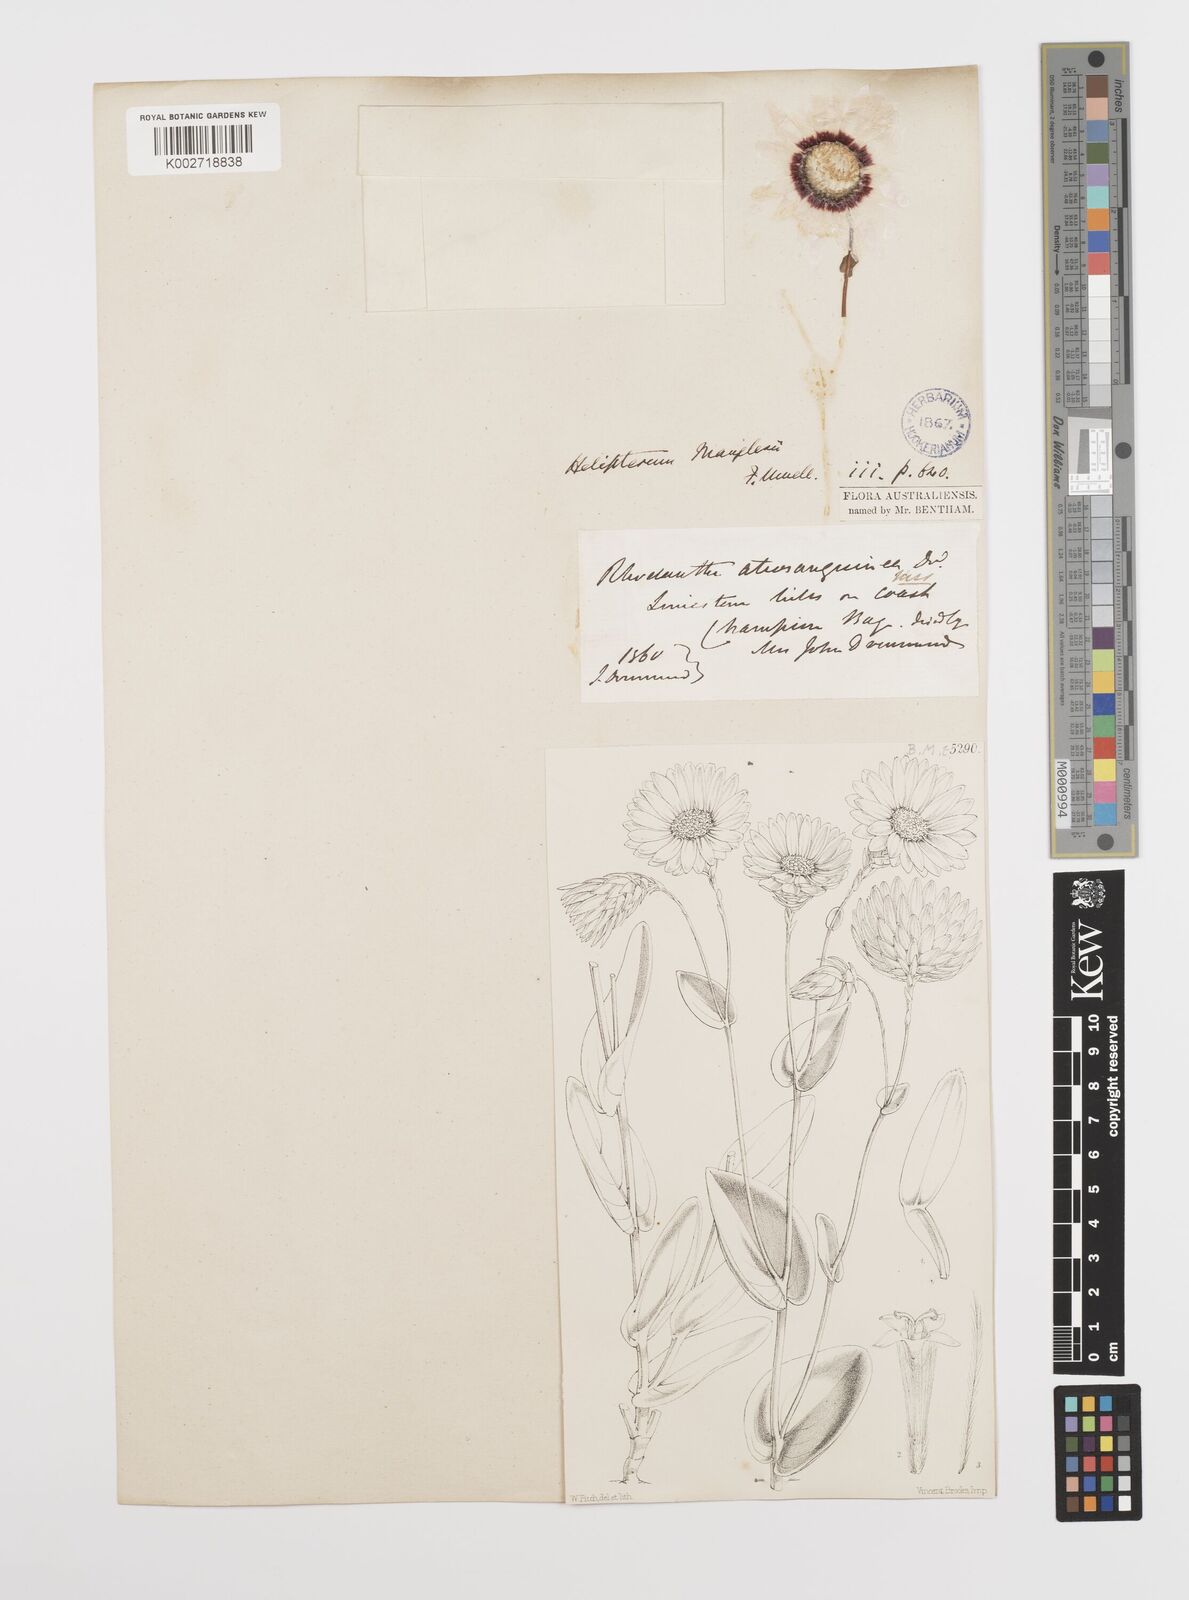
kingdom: Plantae
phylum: Tracheophyta
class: Magnoliopsida
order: Asterales
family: Asteraceae
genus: Rhodanthe
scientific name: Rhodanthe manglesii
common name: Pink sunray
